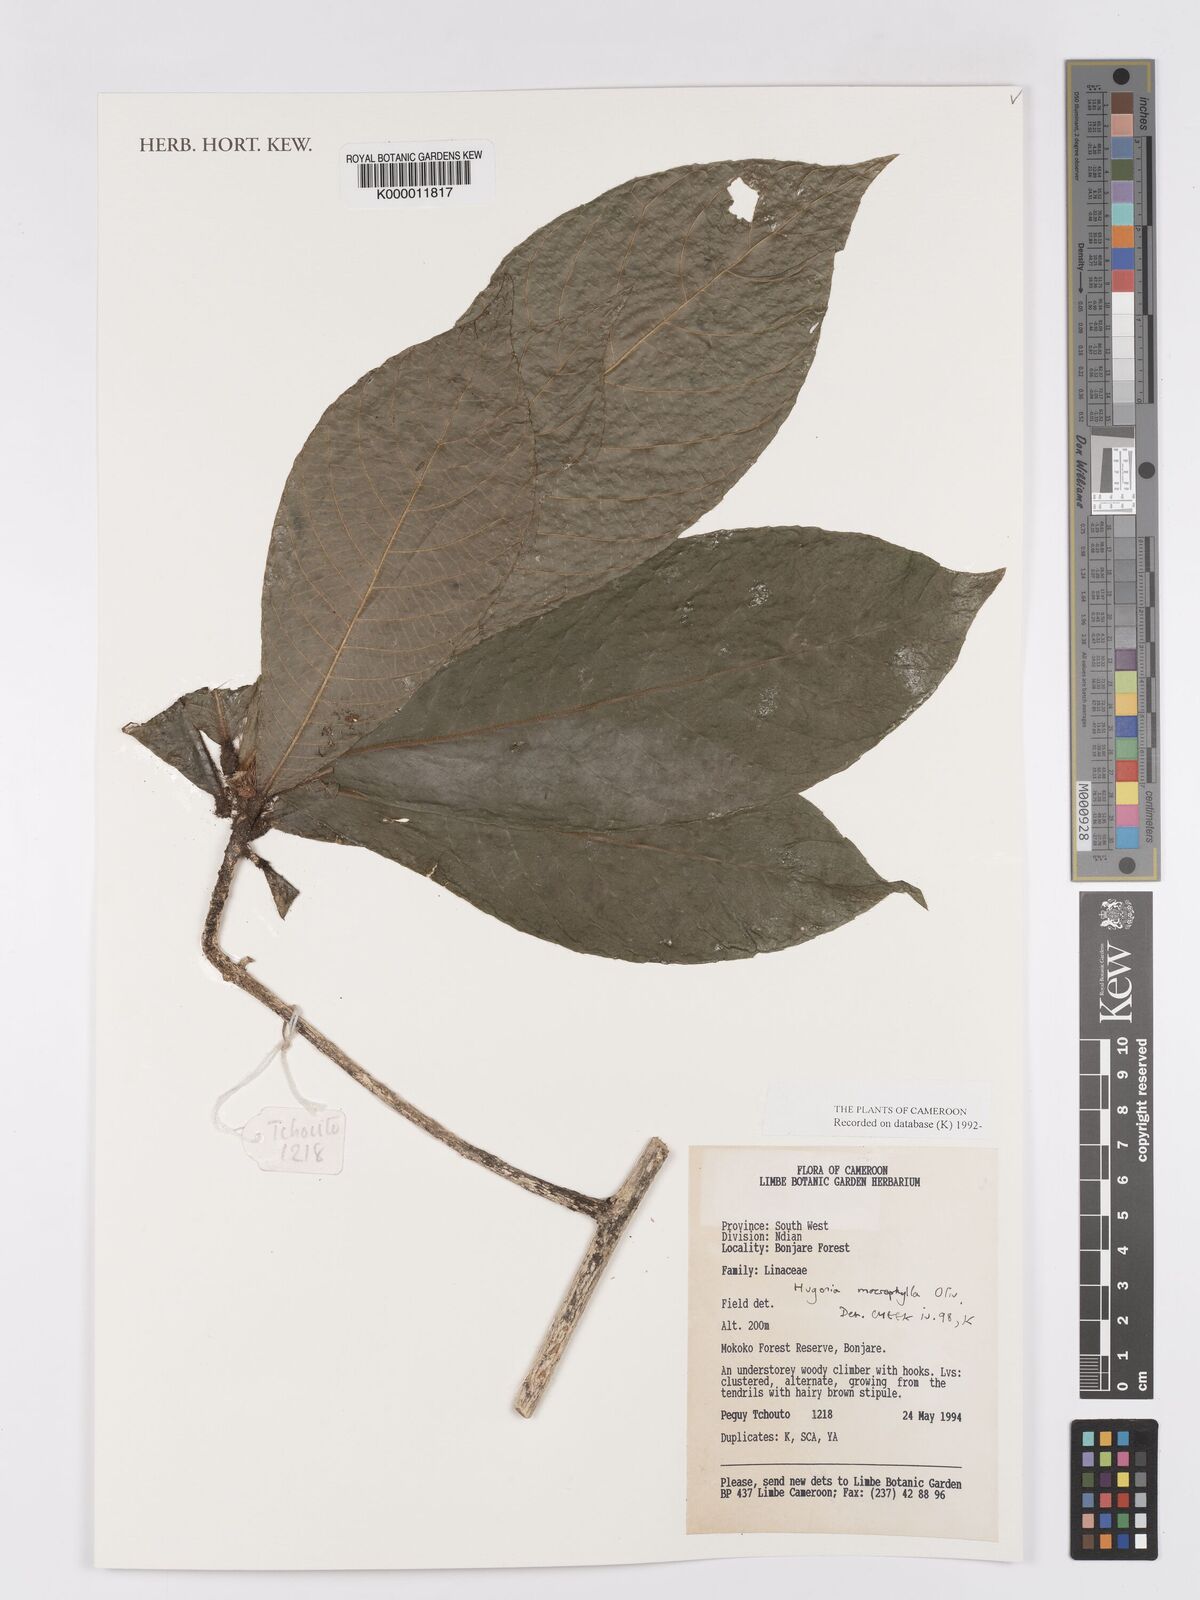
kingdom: Plantae
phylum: Tracheophyta
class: Magnoliopsida
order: Malpighiales
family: Linaceae
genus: Hugonia
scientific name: Hugonia macrophylla
